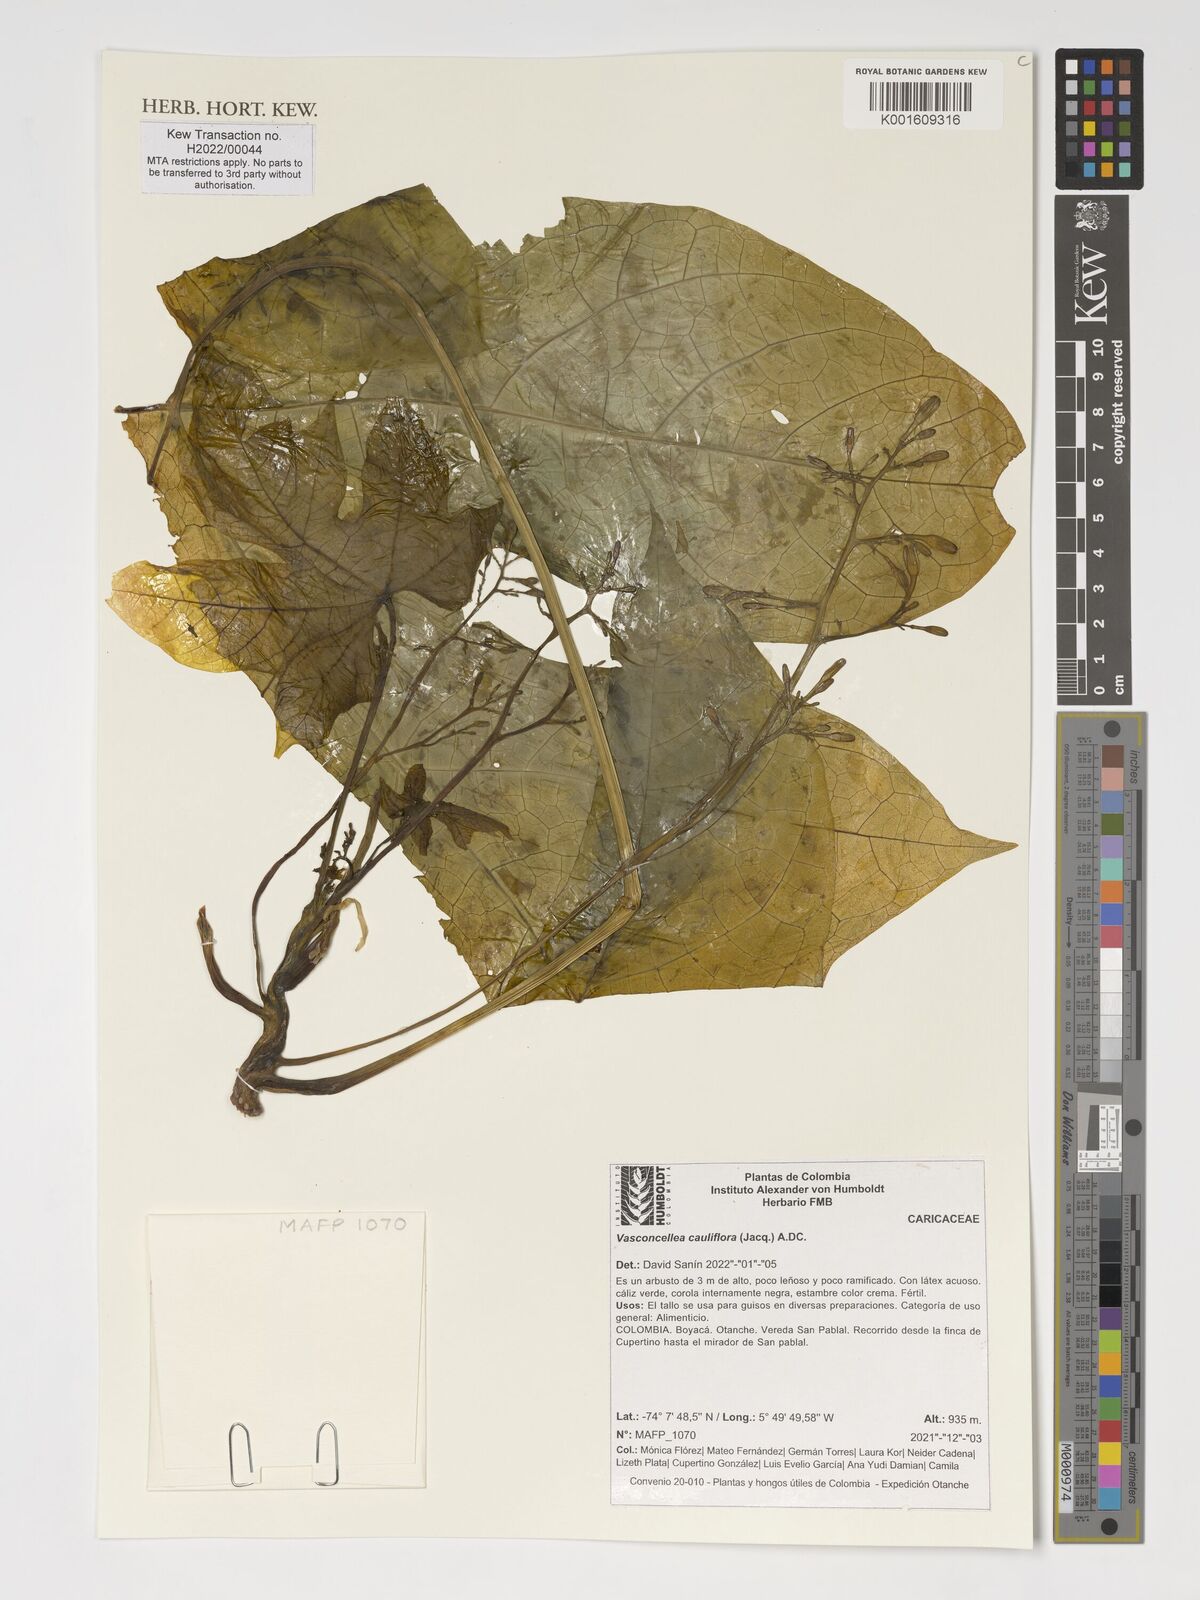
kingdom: Plantae
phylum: Tracheophyta
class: Magnoliopsida
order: Brassicales
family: Caricaceae
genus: Vasconcellea
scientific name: Vasconcellea cauliflora
